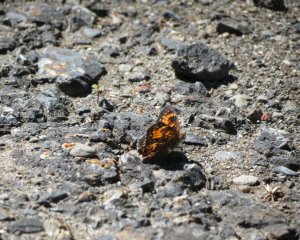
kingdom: Animalia
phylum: Arthropoda
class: Insecta
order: Lepidoptera
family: Nymphalidae
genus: Chlosyne
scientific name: Chlosyne harrisii
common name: Harris's Checkerspot
